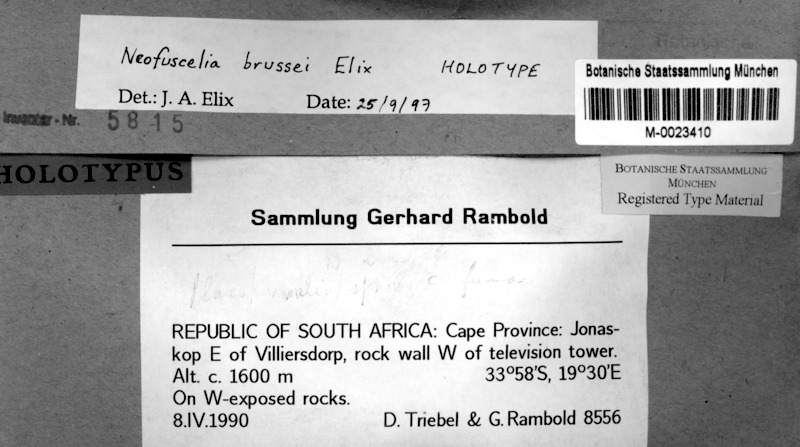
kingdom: Fungi
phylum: Ascomycota
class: Lecanoromycetes
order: Lecanorales
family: Parmeliaceae
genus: Xanthoparmelia
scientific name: Xanthoparmelia brussei
